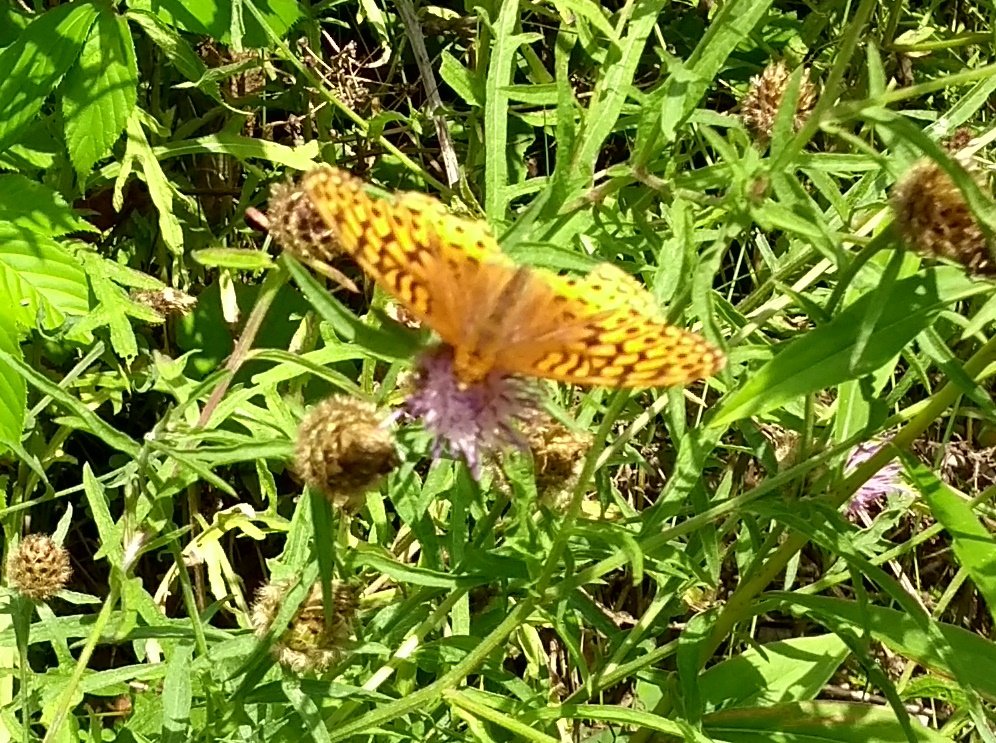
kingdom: Animalia
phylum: Arthropoda
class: Insecta
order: Lepidoptera
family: Nymphalidae
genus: Speyeria
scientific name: Speyeria cybele
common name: Great Spangled Fritillary
